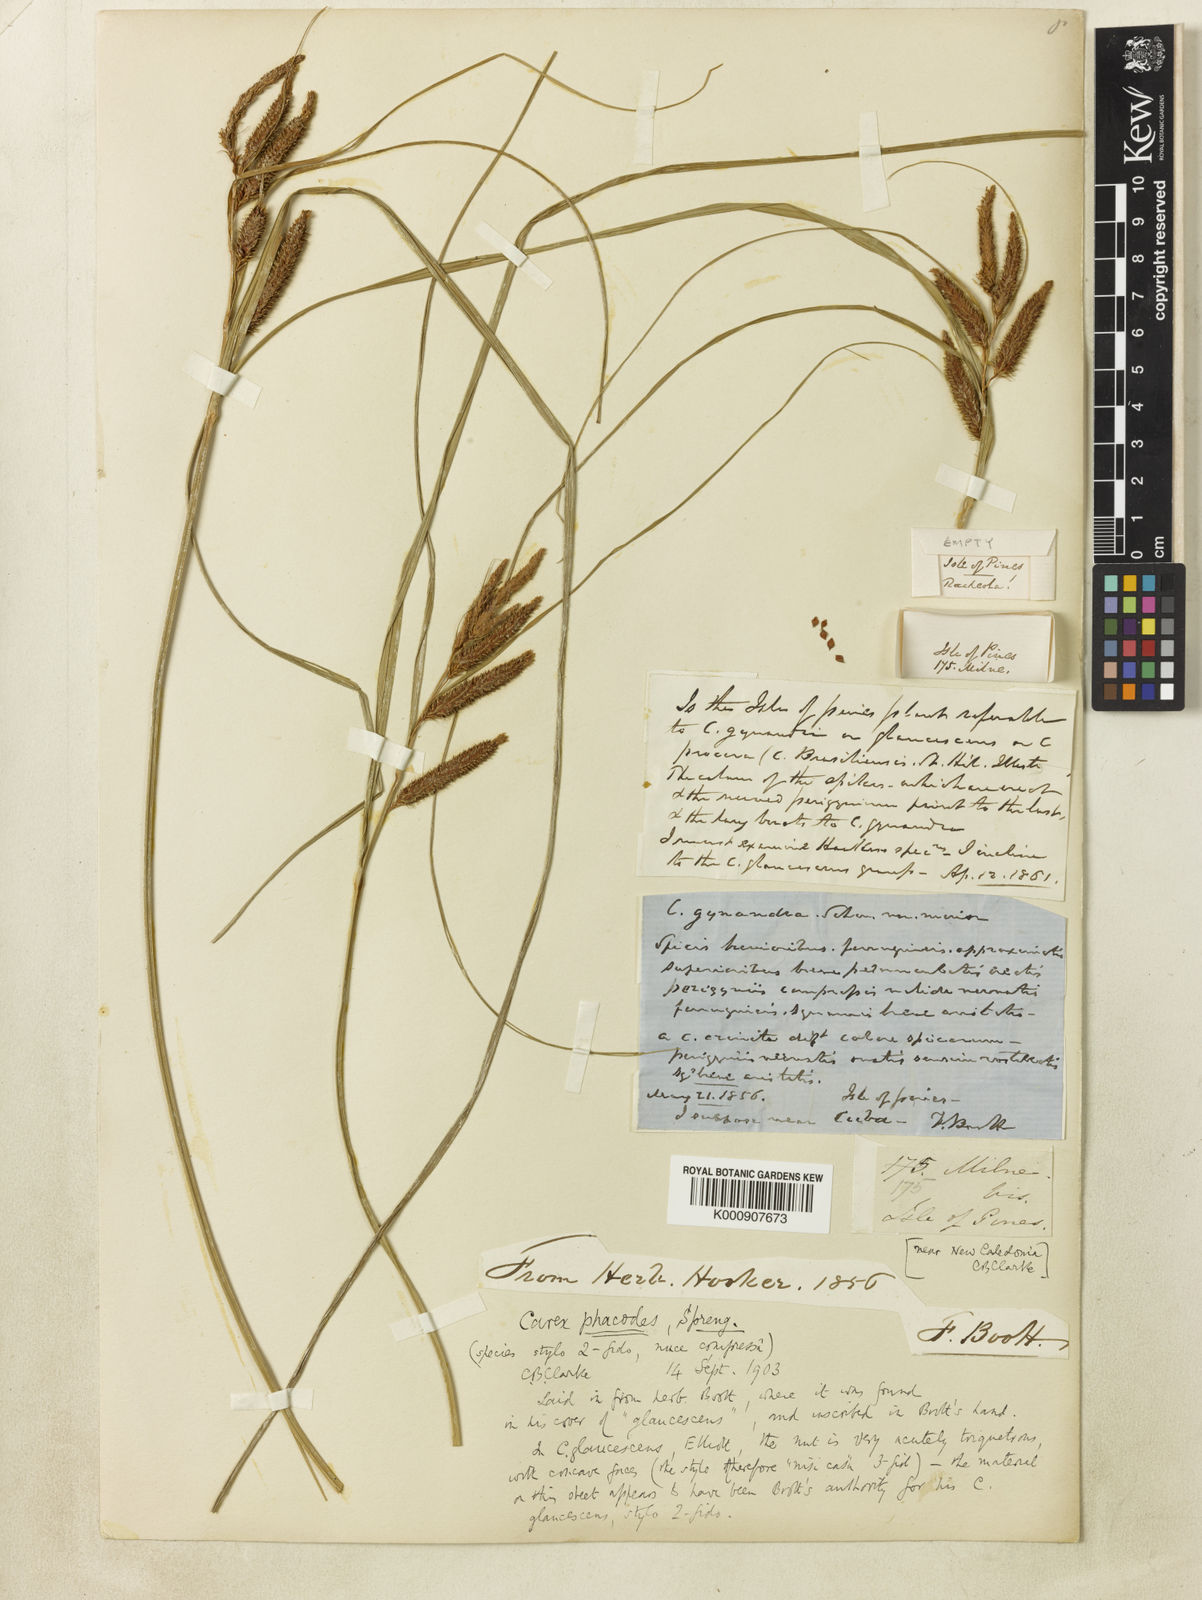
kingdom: Plantae
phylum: Tracheophyta
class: Liliopsida
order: Poales
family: Cyperaceae
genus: Carex
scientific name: Carex inversonervosa
